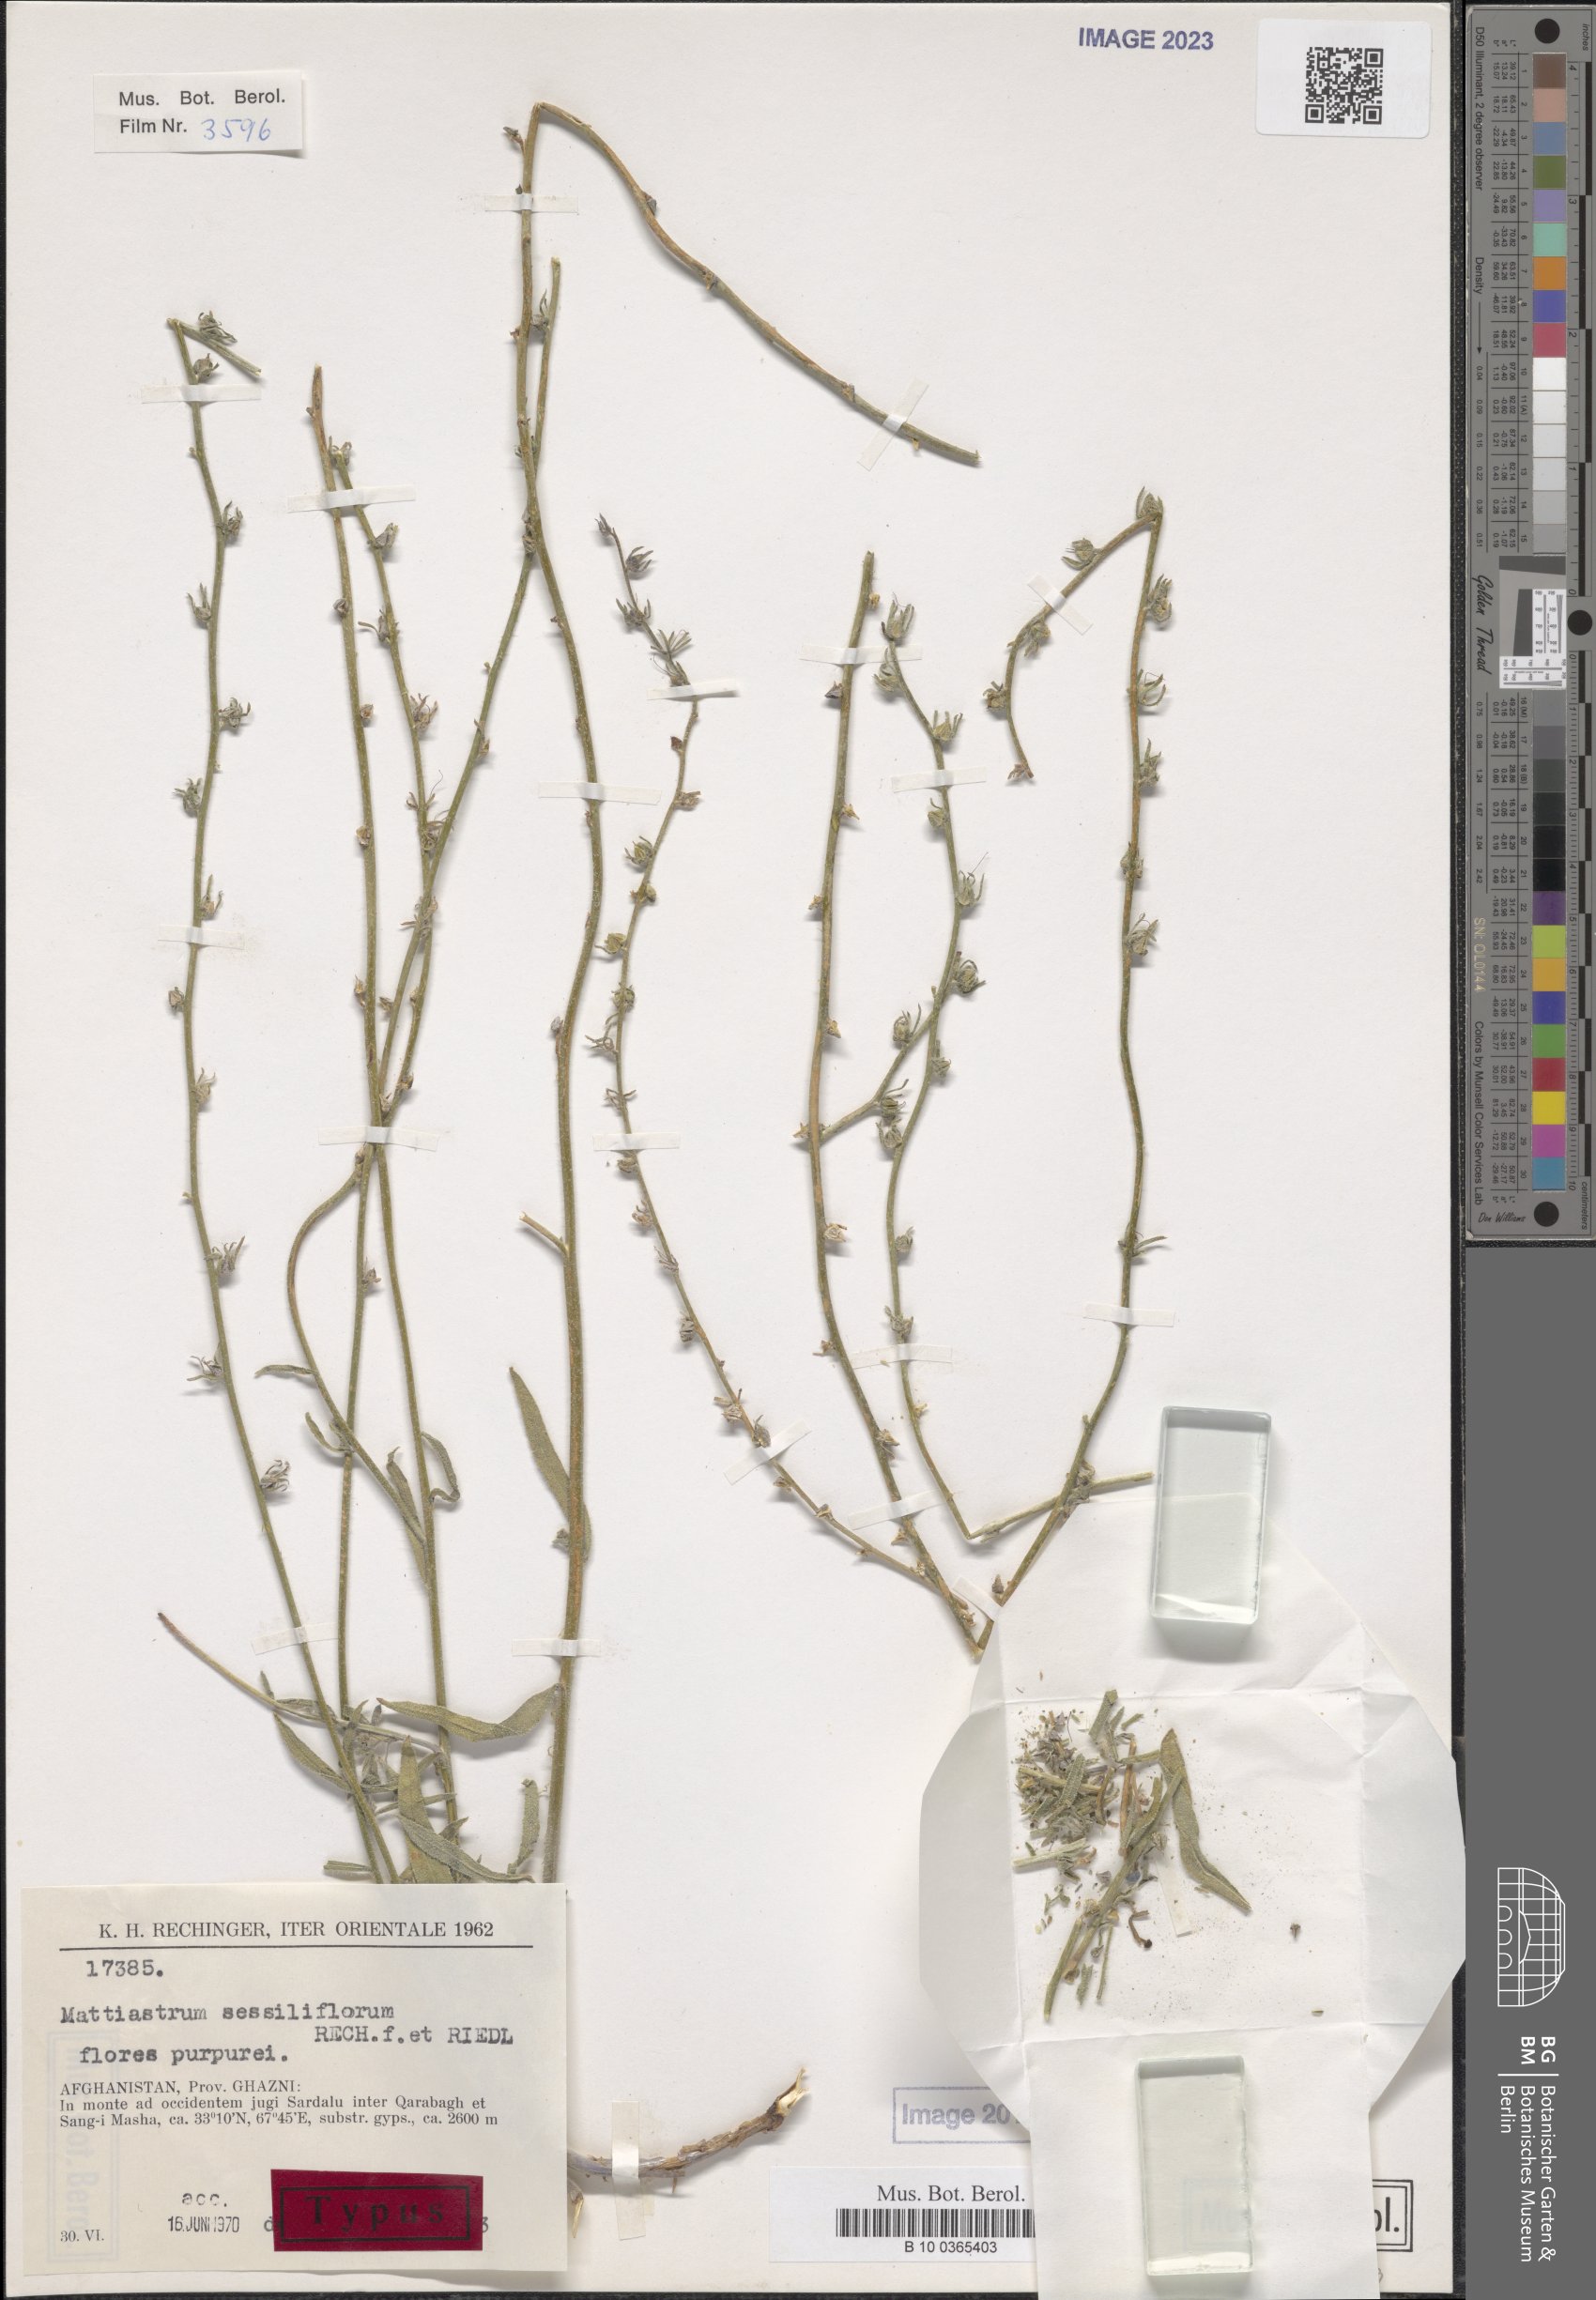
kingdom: Plantae
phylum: Tracheophyta
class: Magnoliopsida
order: Boraginales
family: Boraginaceae
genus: Paracaryum
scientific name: Paracaryum sessiliflorum
